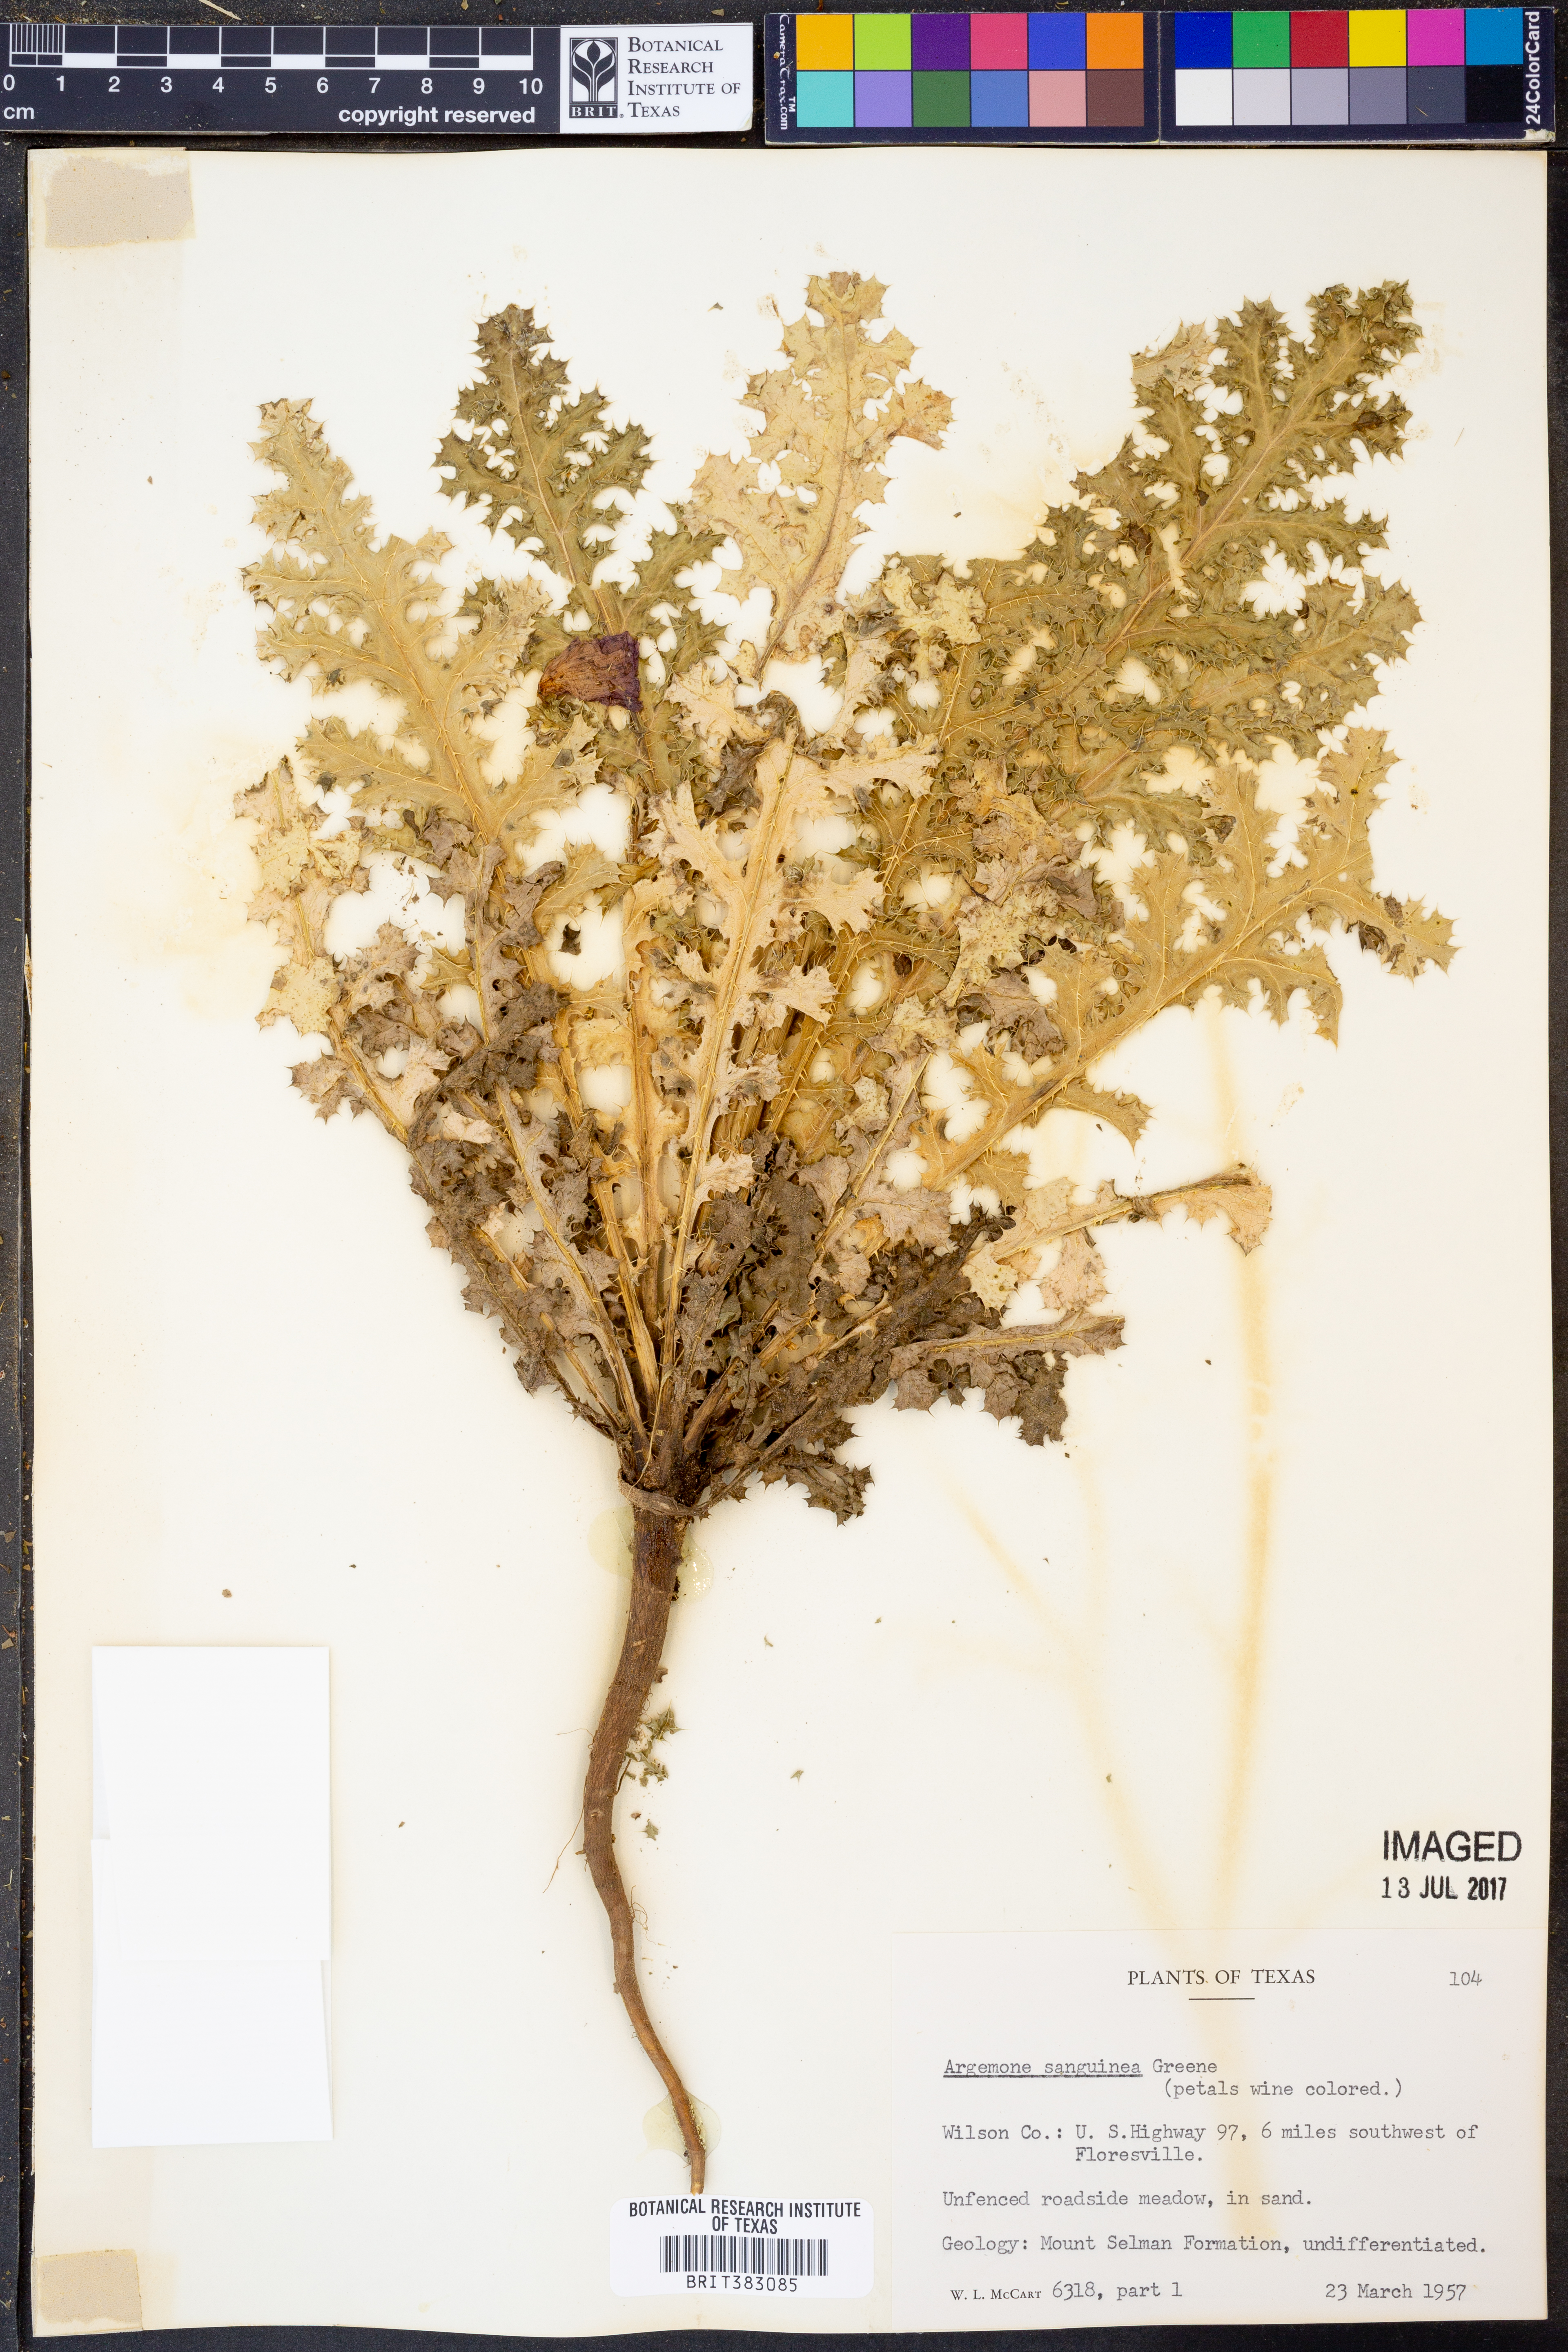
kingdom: Plantae
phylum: Tracheophyta
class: Magnoliopsida
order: Ranunculales
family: Papaveraceae
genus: Argemone
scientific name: Argemone sanguinea
